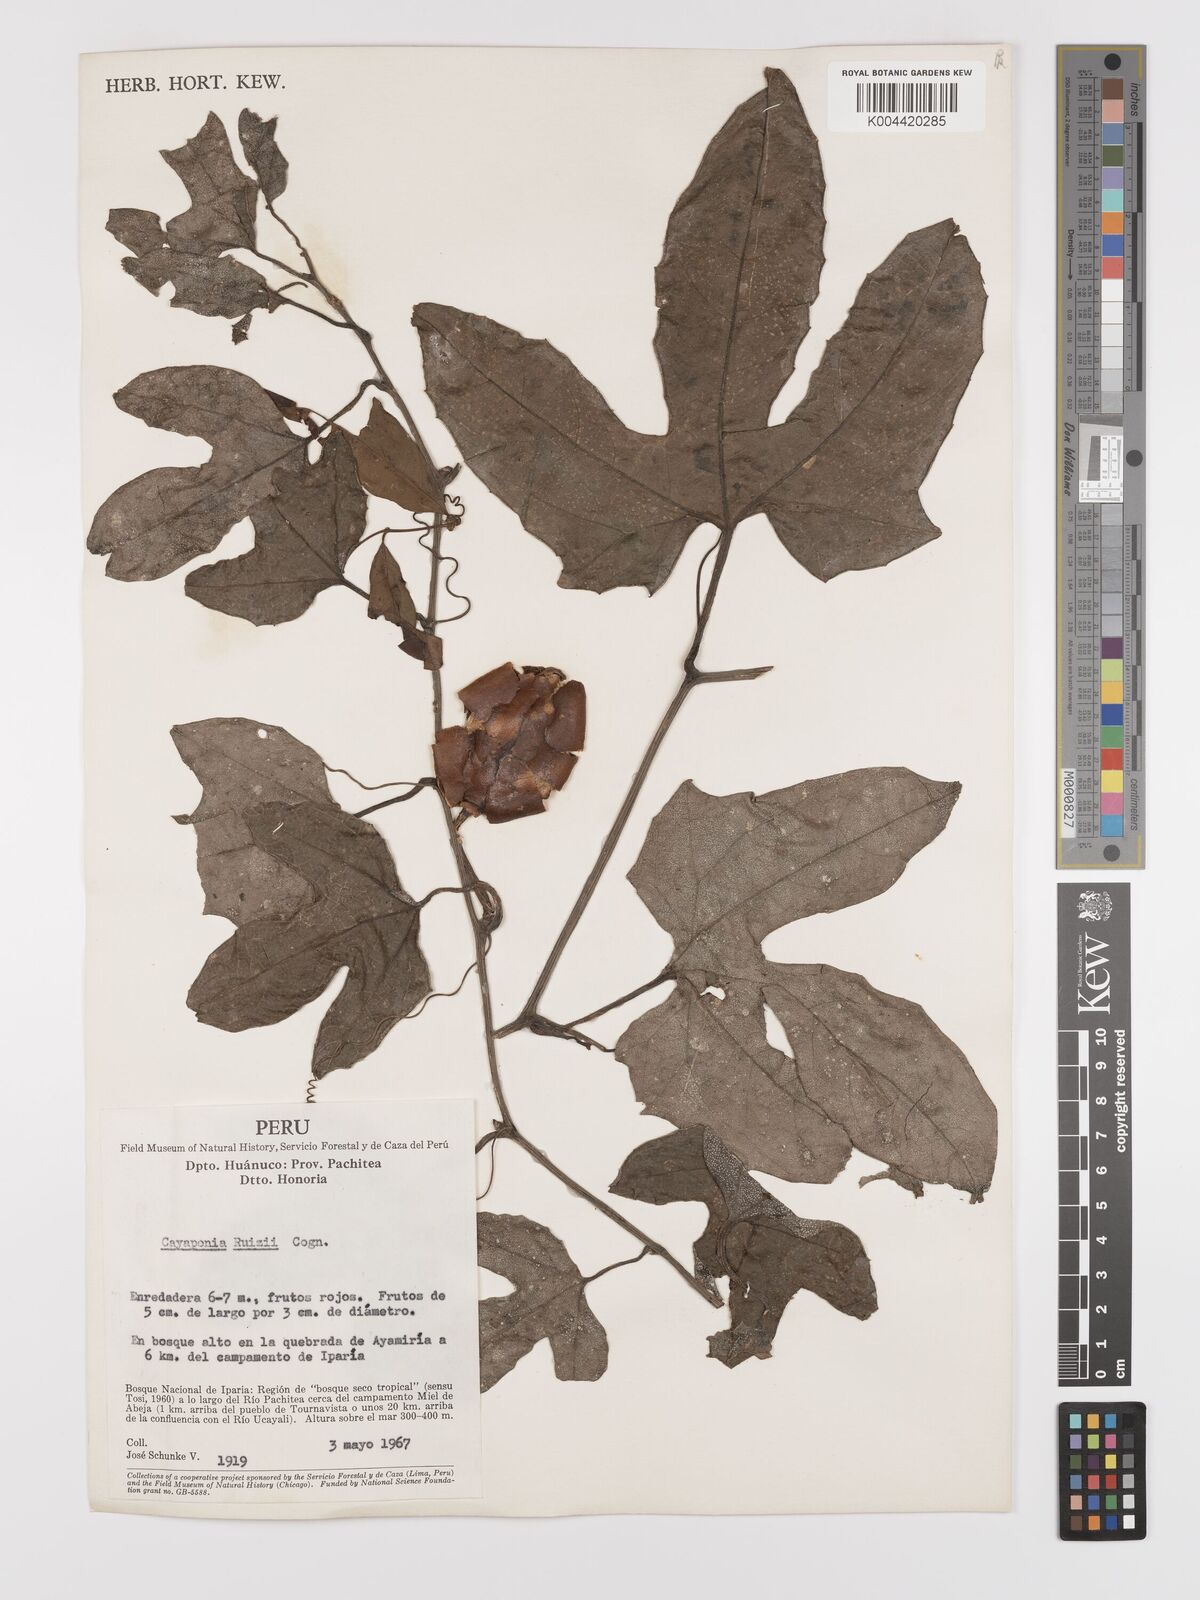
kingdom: Plantae
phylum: Tracheophyta
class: Magnoliopsida
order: Cucurbitales
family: Cucurbitaceae
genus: Cayaponia
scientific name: Cayaponia ruizii
